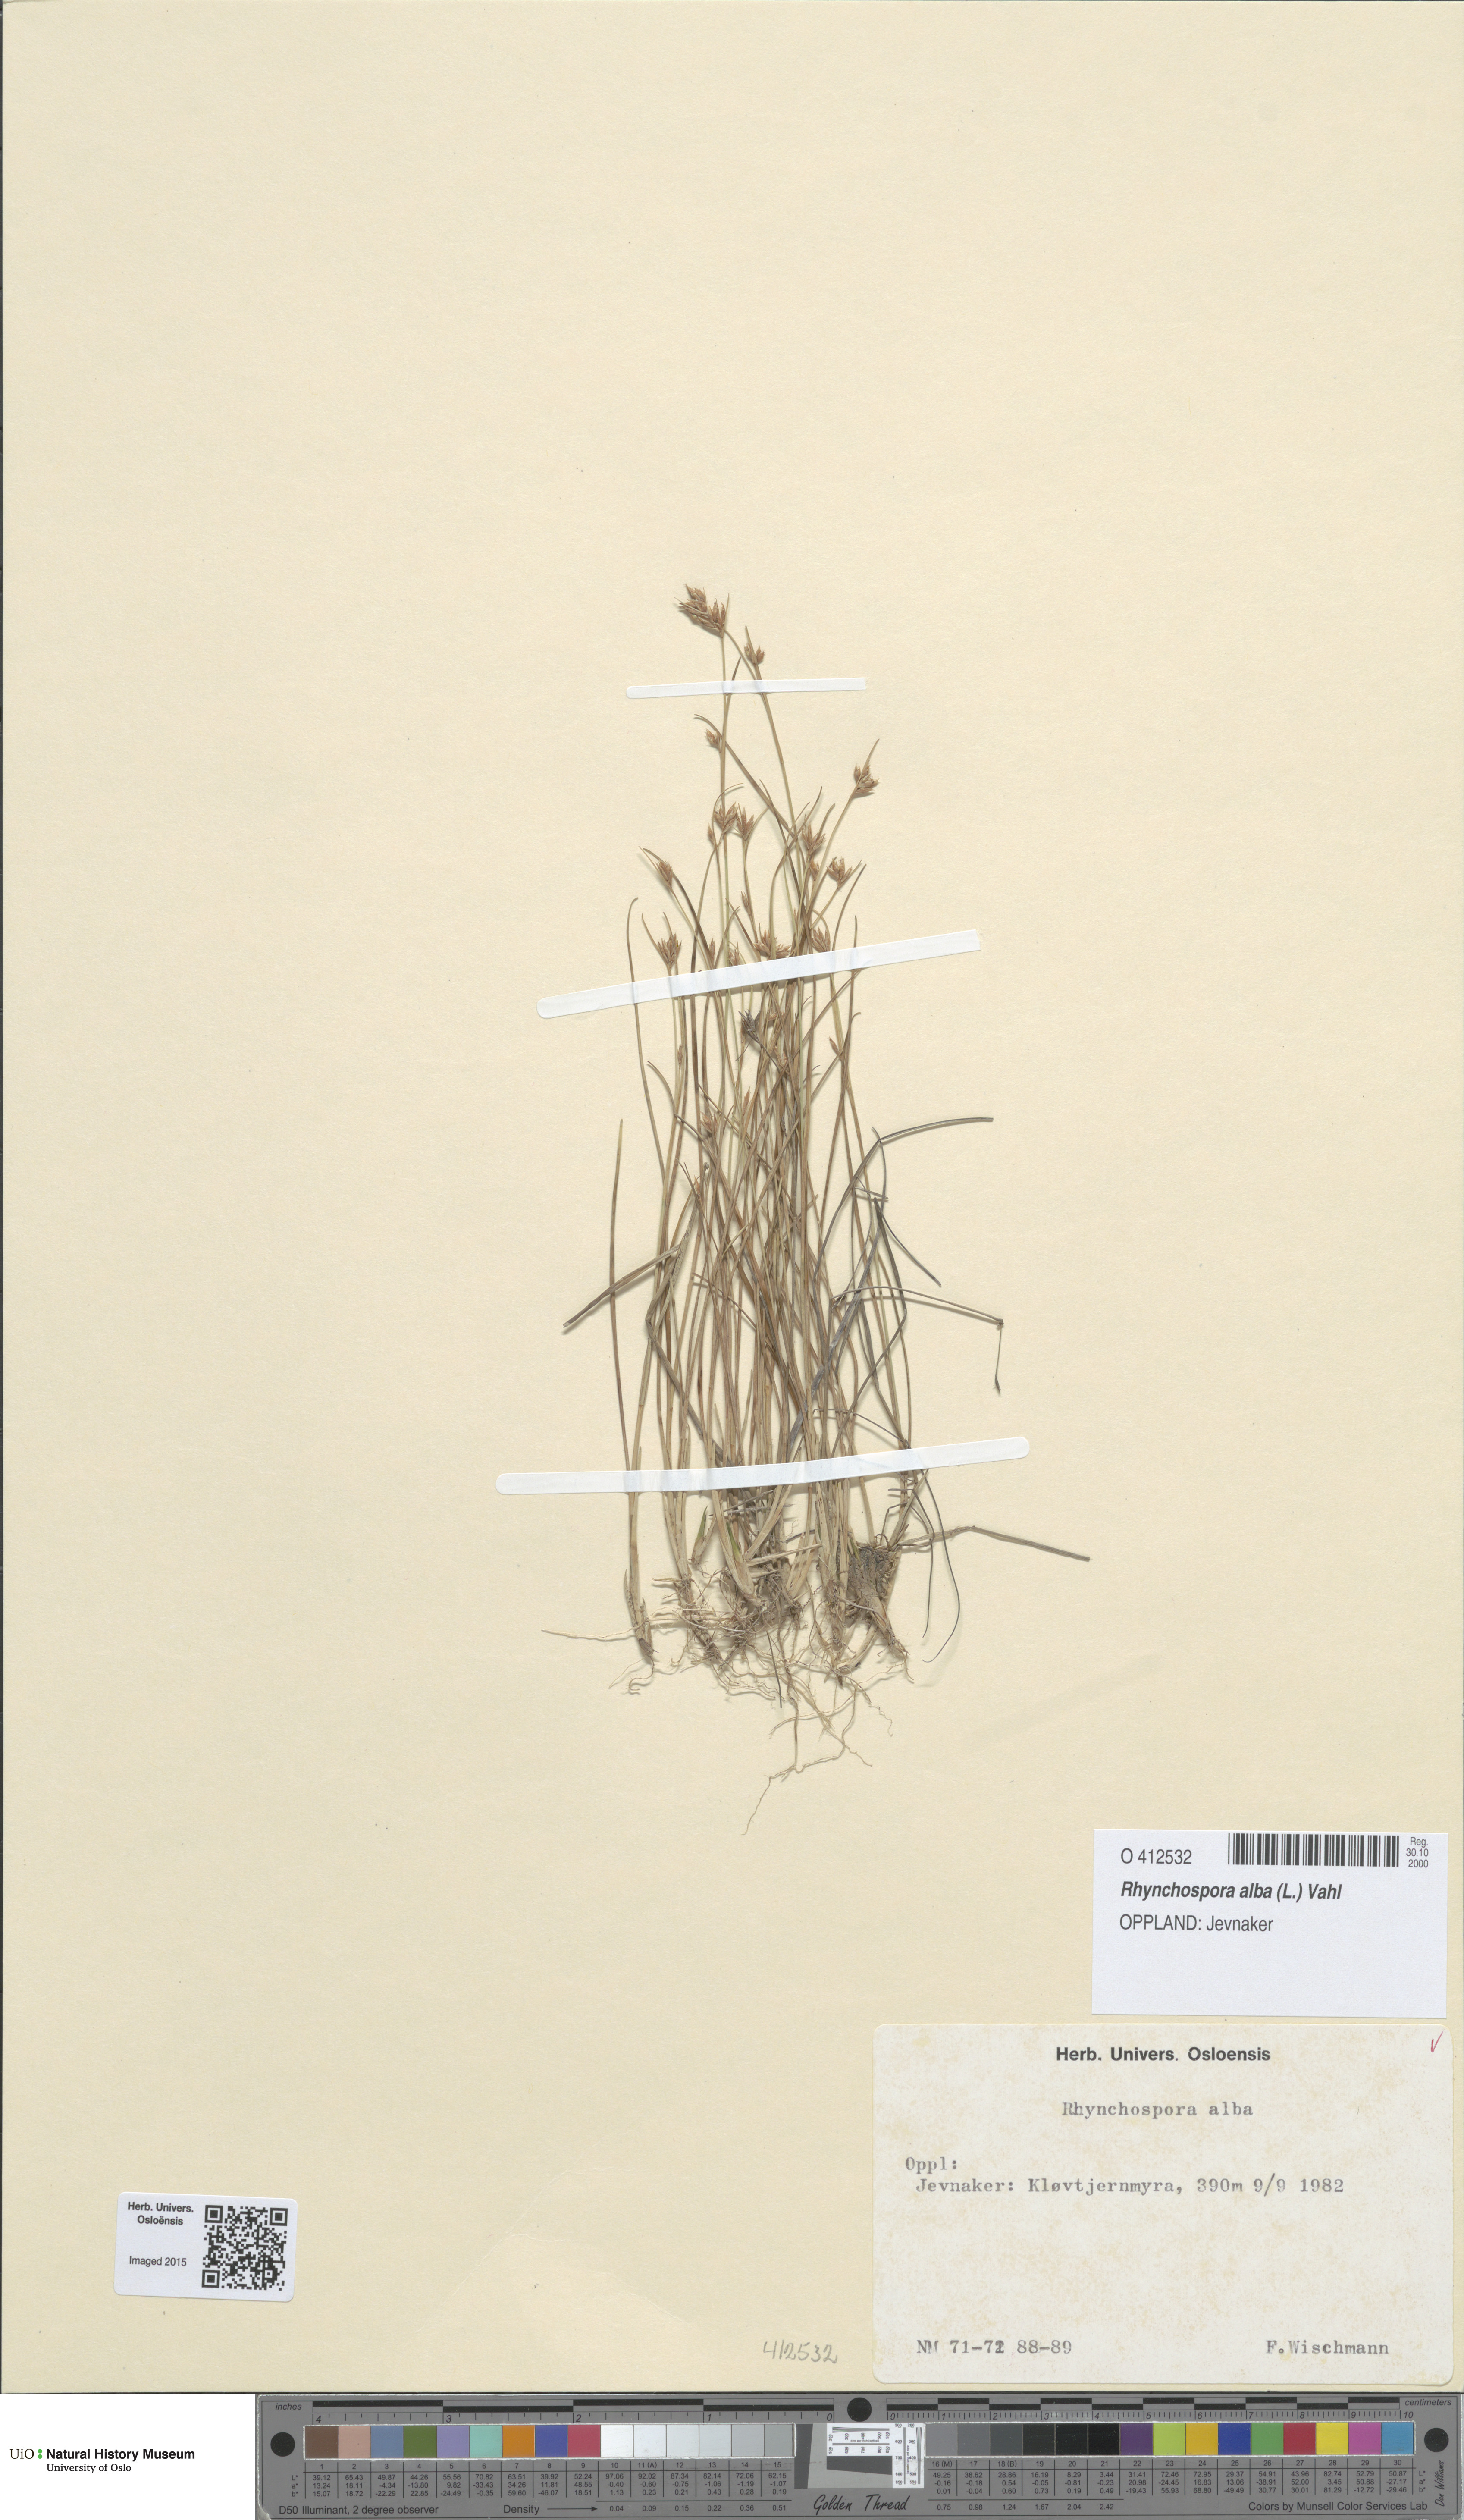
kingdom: Plantae
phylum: Tracheophyta
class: Liliopsida
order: Poales
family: Cyperaceae
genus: Rhynchospora
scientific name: Rhynchospora alba
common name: White beak-sedge
